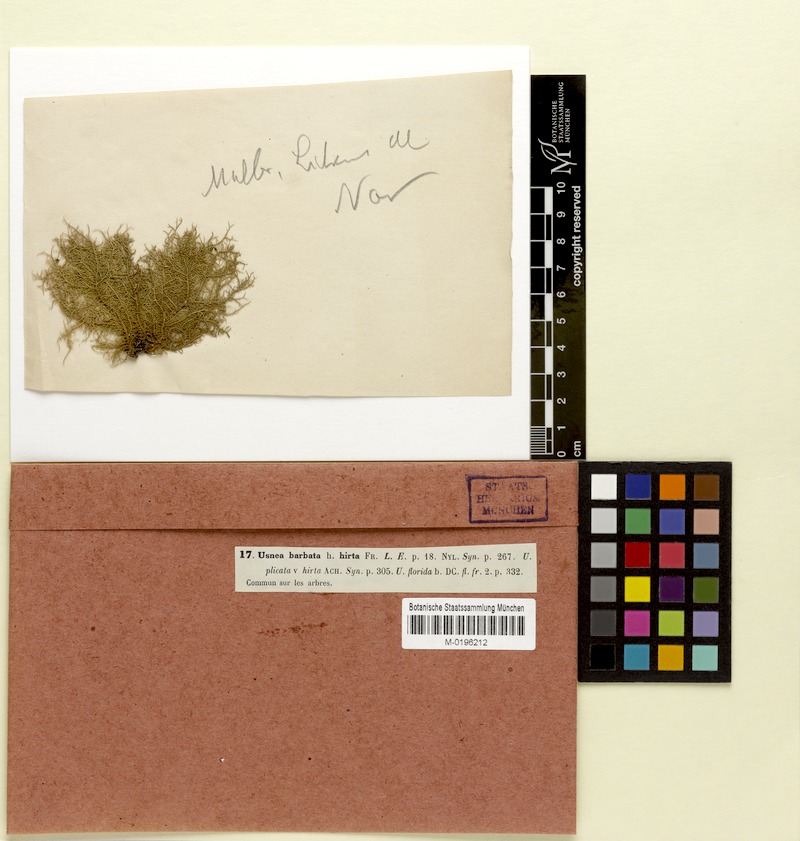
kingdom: Fungi
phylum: Ascomycota
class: Lecanoromycetes
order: Lecanorales
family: Parmeliaceae
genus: Usnea
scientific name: Usnea hirta
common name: Bristly beard lichen
